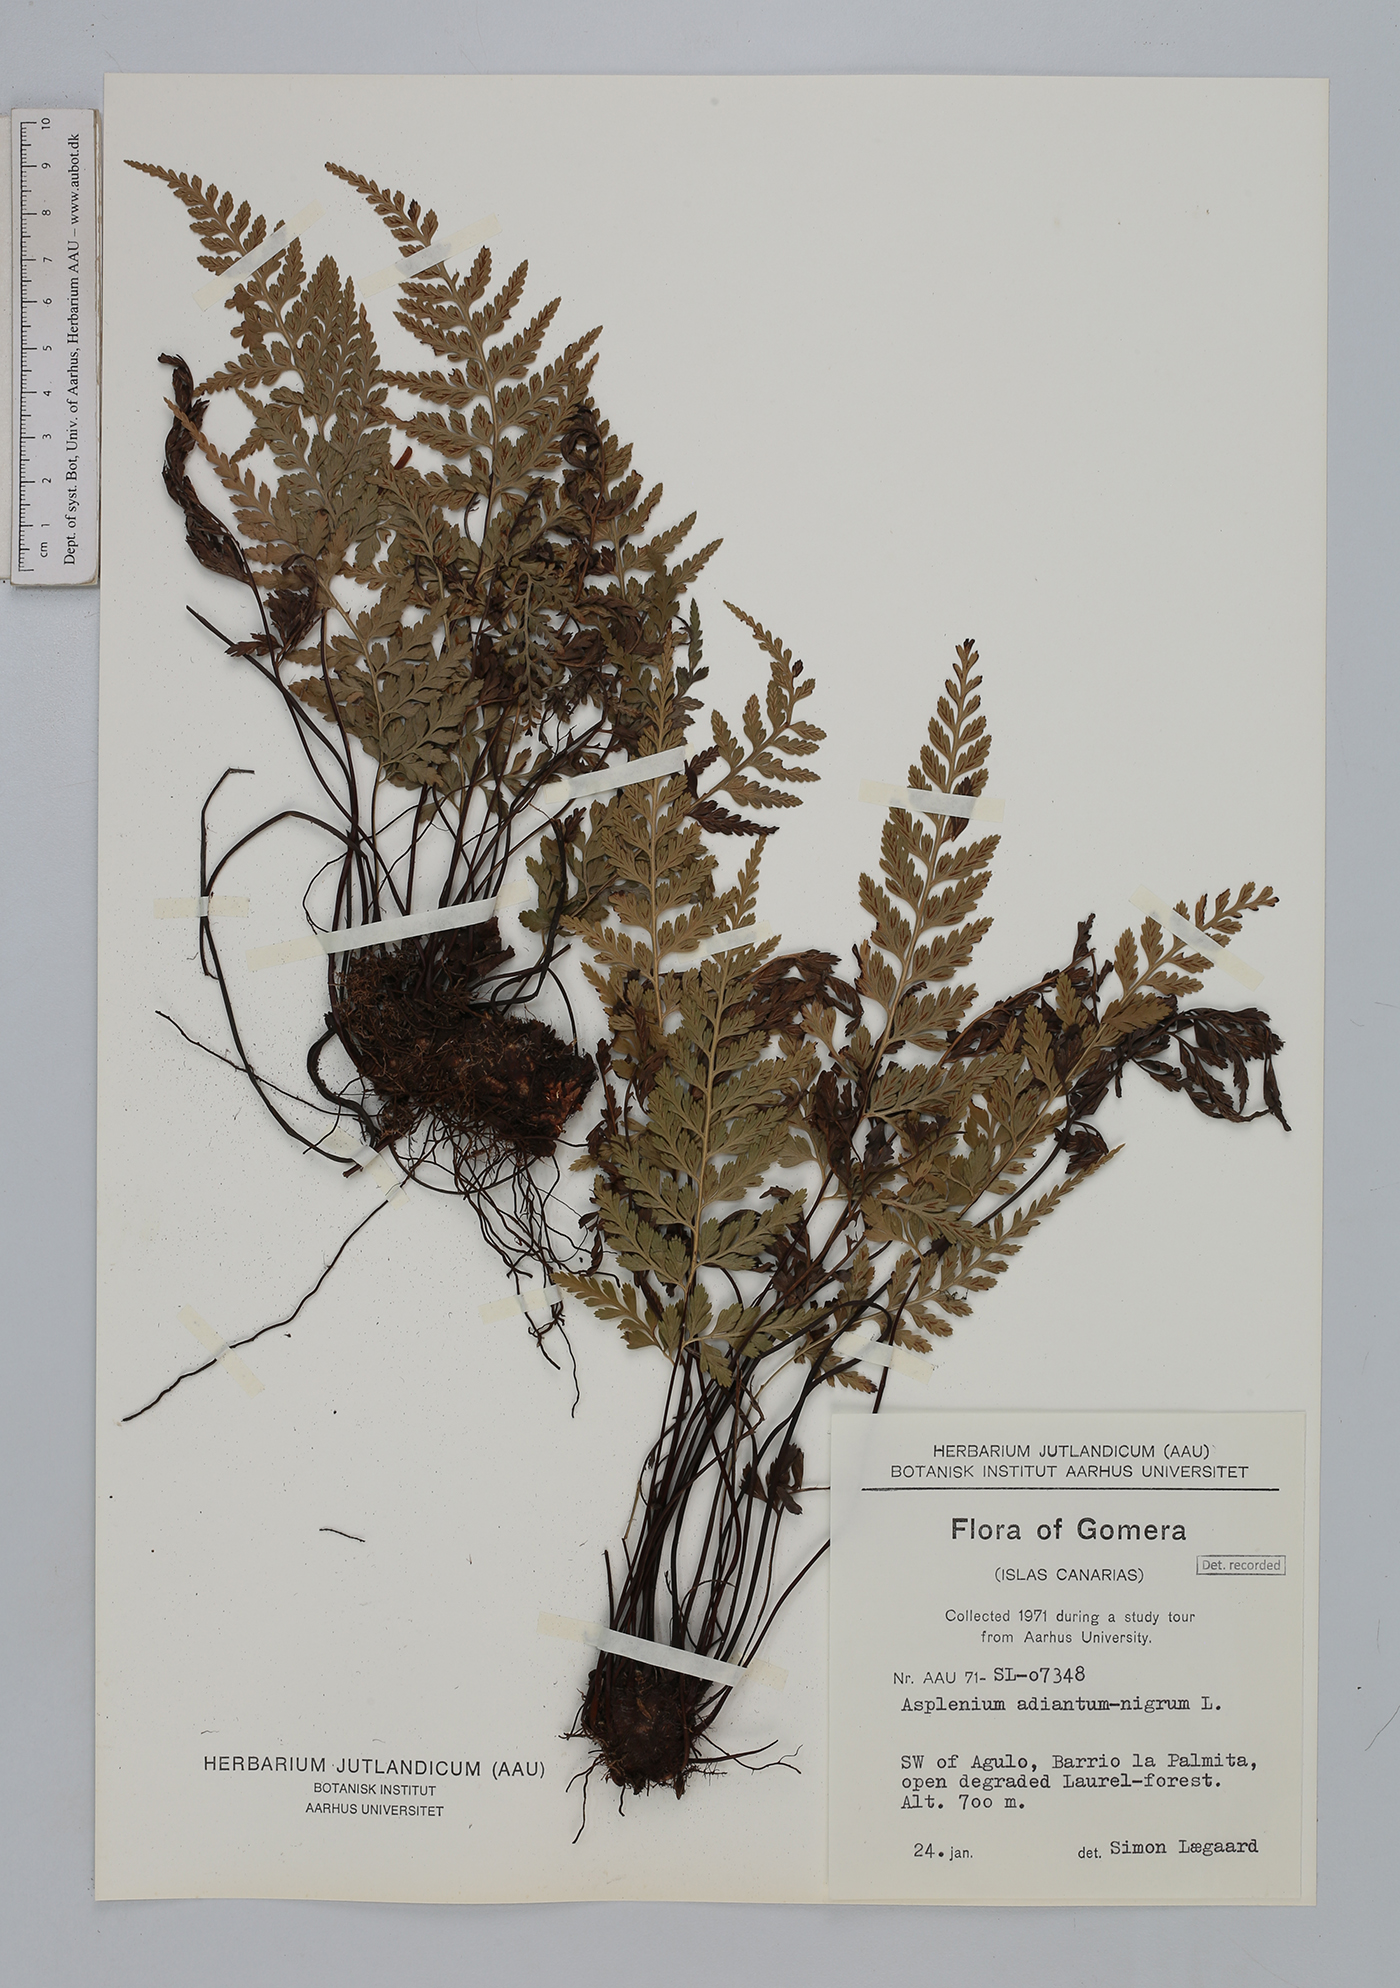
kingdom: Plantae
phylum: Tracheophyta
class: Polypodiopsida
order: Polypodiales
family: Aspleniaceae
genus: Asplenium
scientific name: Asplenium adiantum-nigrum
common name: Black spleenwort
